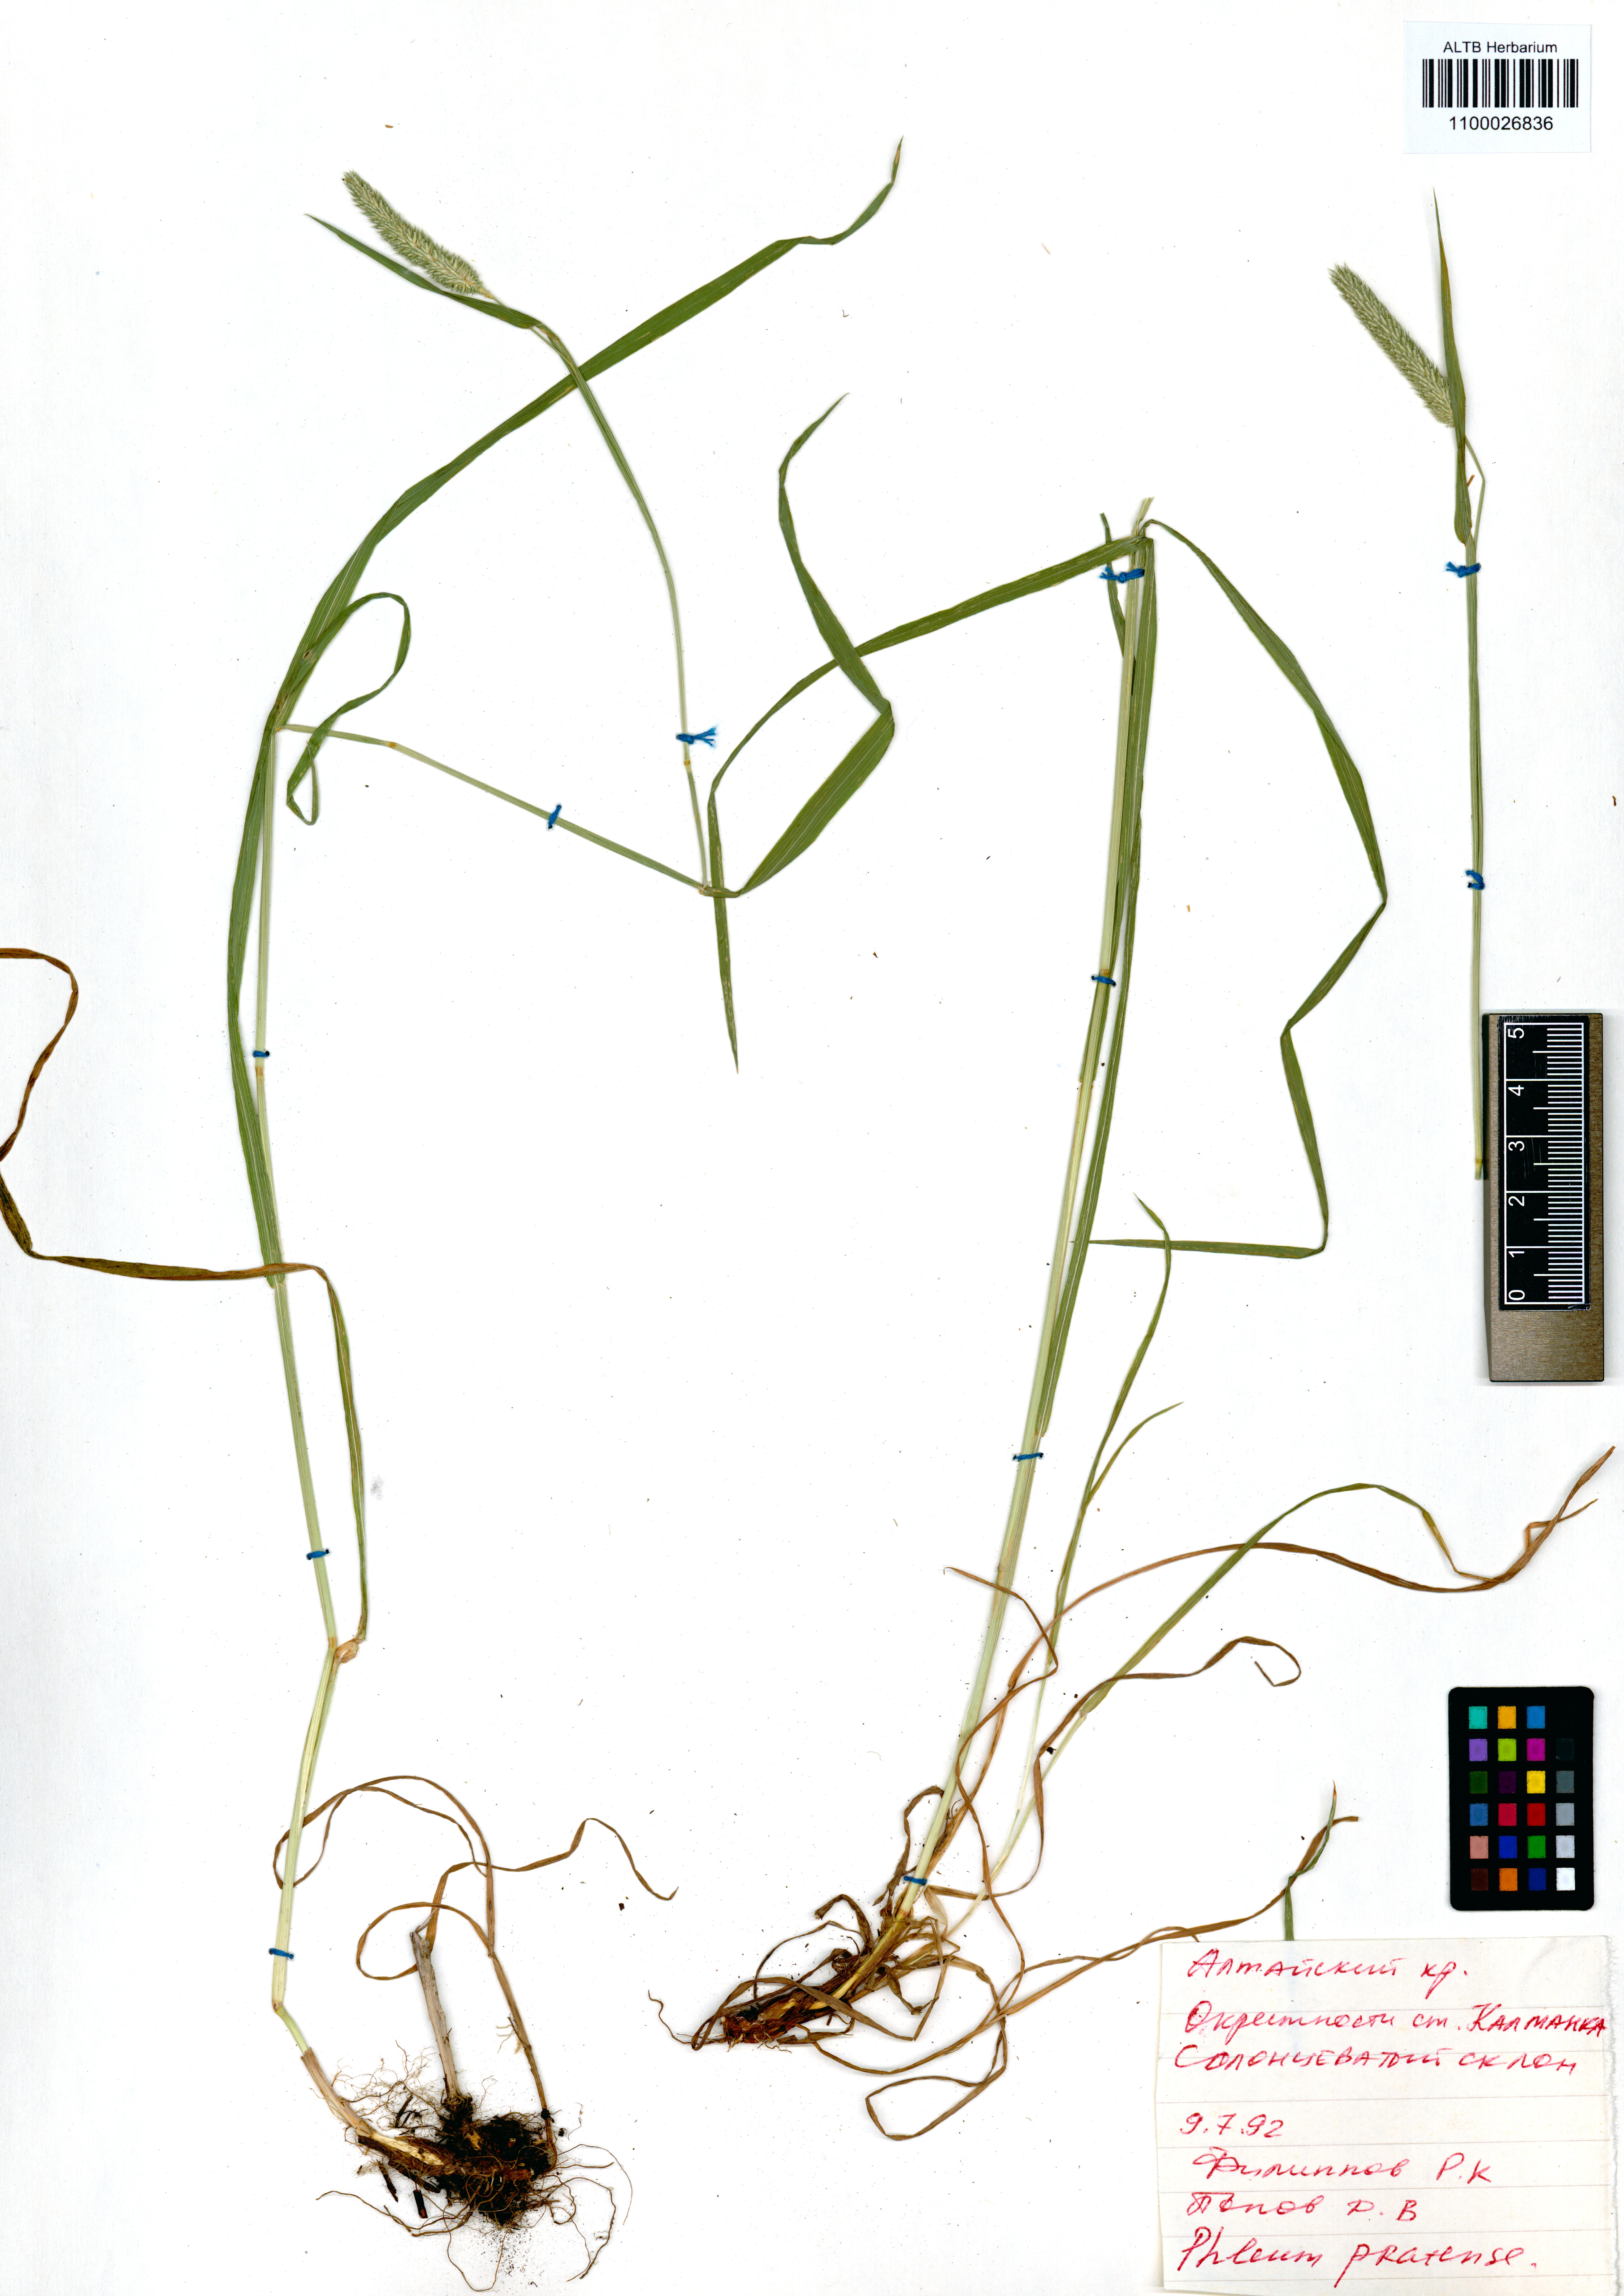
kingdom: Plantae
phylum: Tracheophyta
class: Liliopsida
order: Poales
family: Poaceae
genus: Phleum
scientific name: Phleum pratense
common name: Timothy grass
